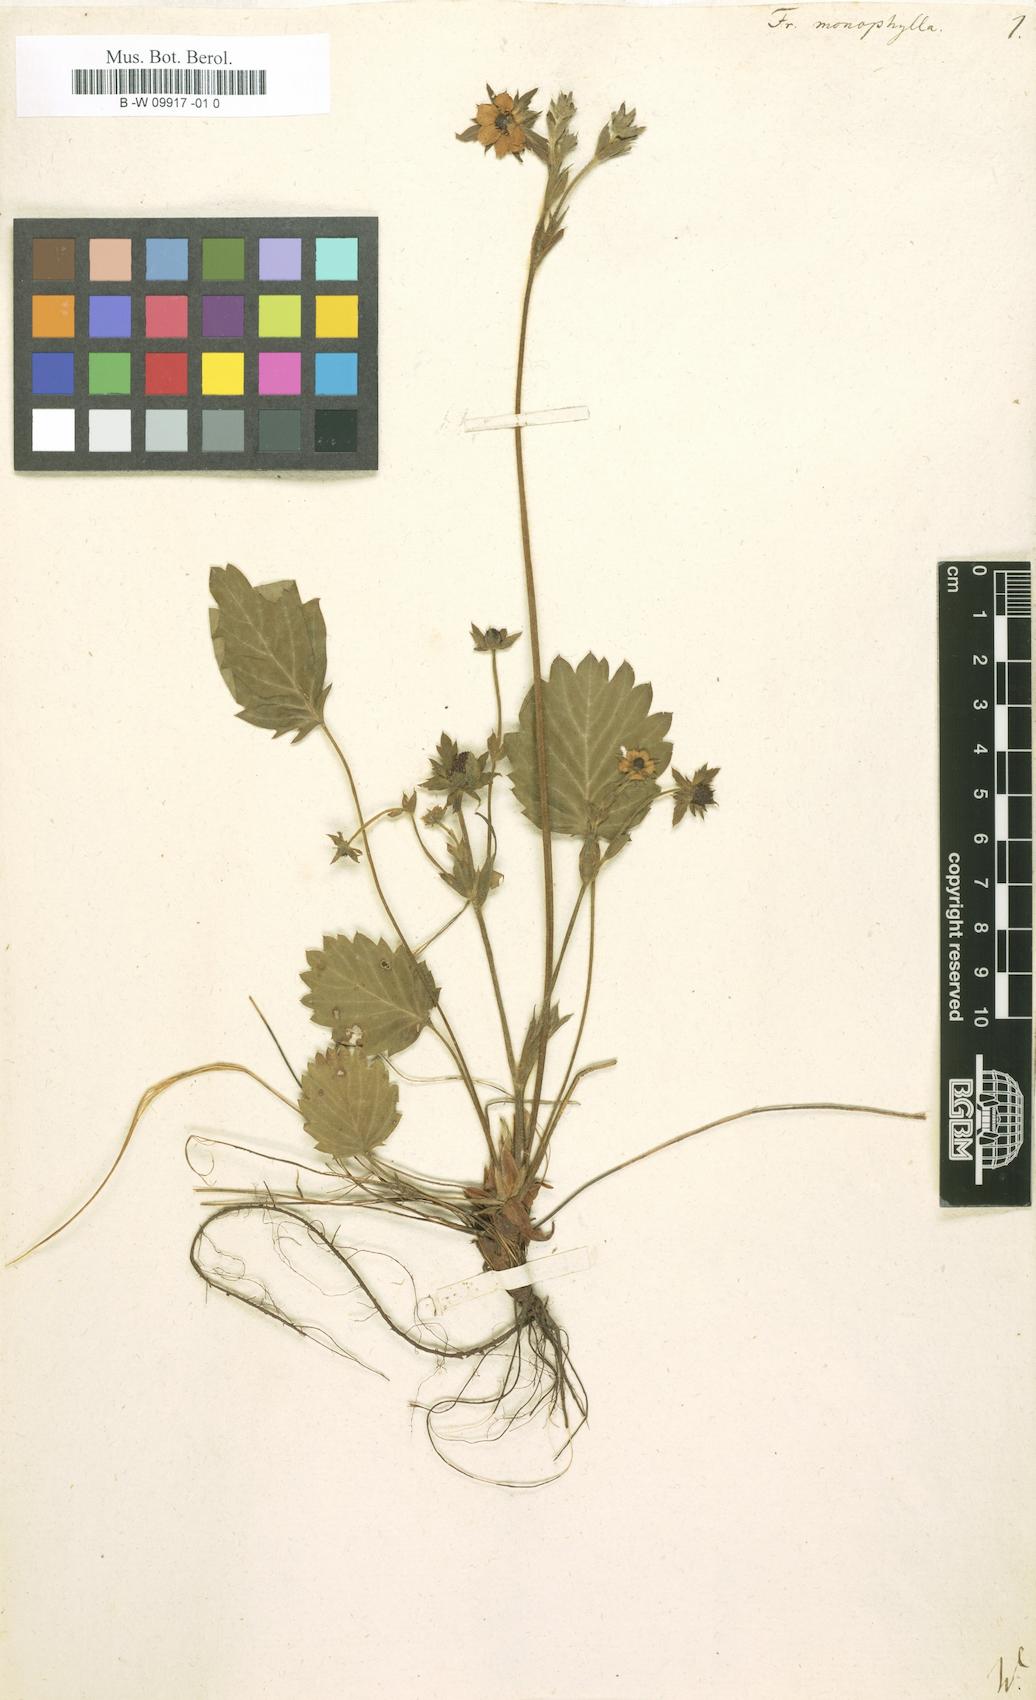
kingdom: Plantae
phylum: Tracheophyta
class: Magnoliopsida
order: Rosales
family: Rosaceae
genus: Fragaria
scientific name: Fragaria vesca
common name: Wild strawberry
